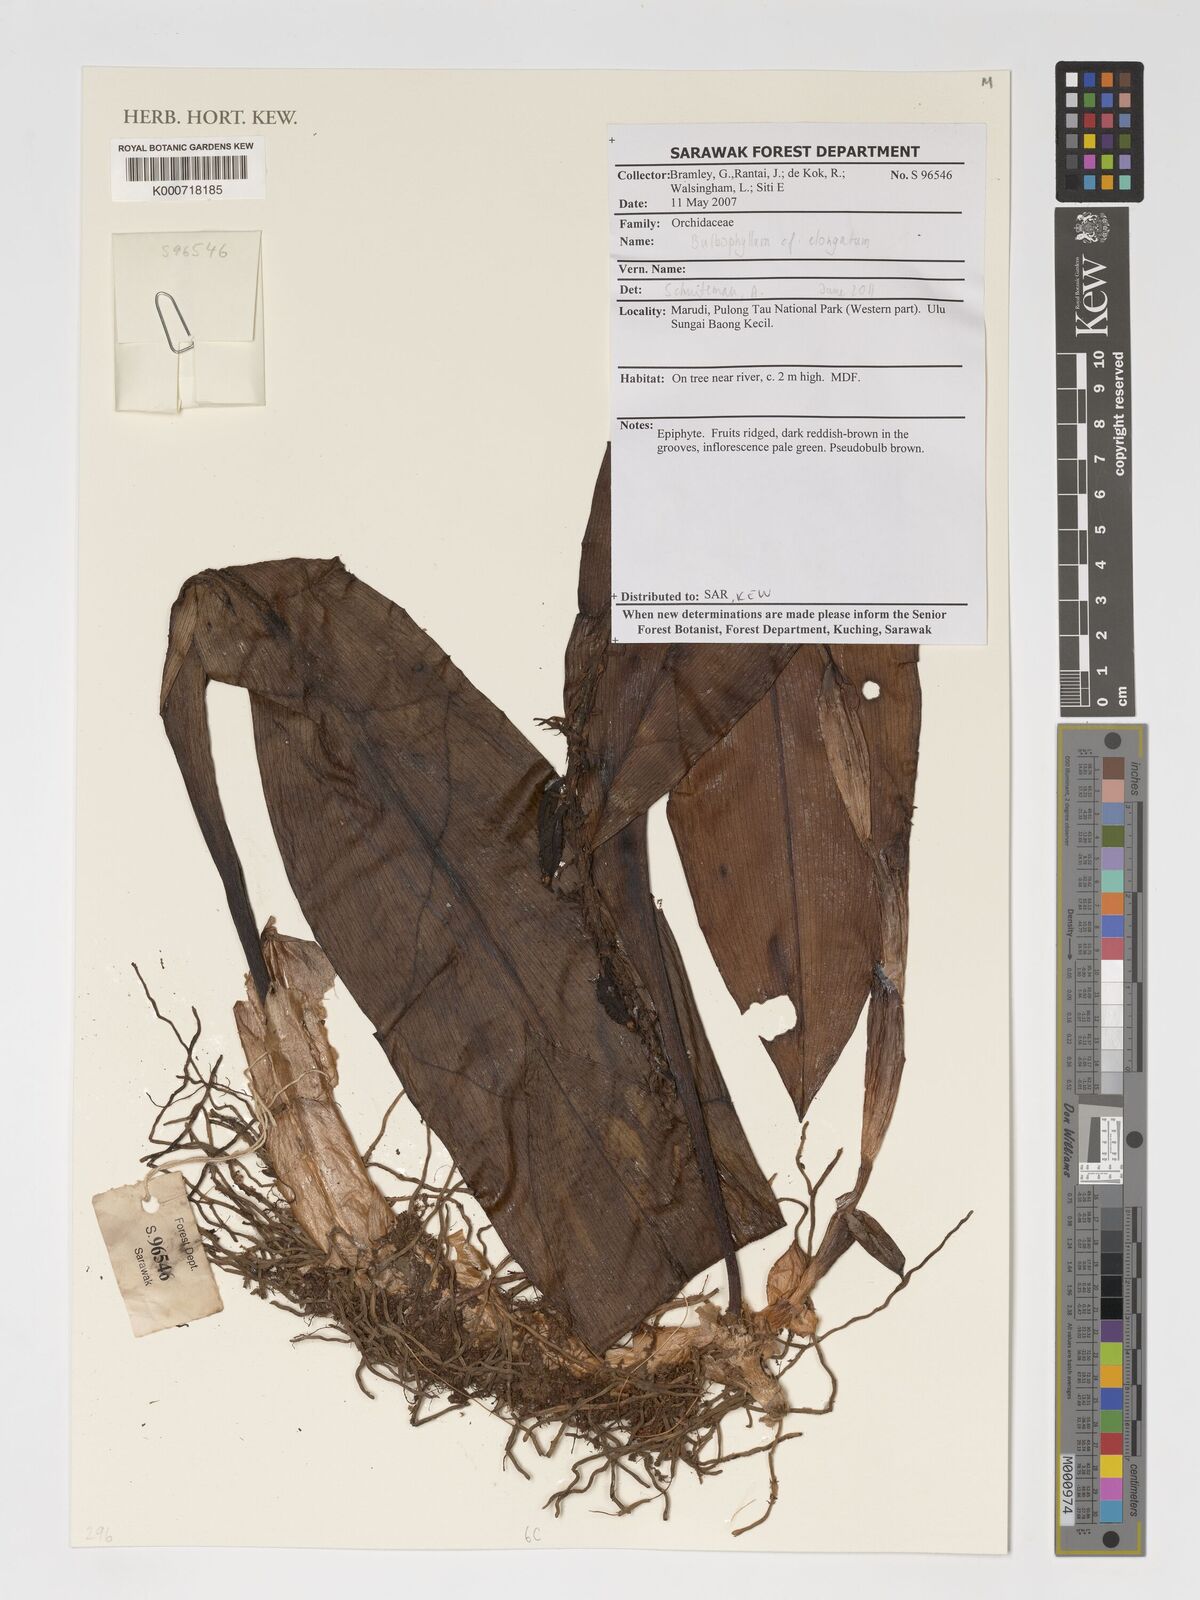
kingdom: Plantae
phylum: Tracheophyta
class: Liliopsida
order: Asparagales
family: Orchidaceae
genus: Bulbophyllum
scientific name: Bulbophyllum elongatum
